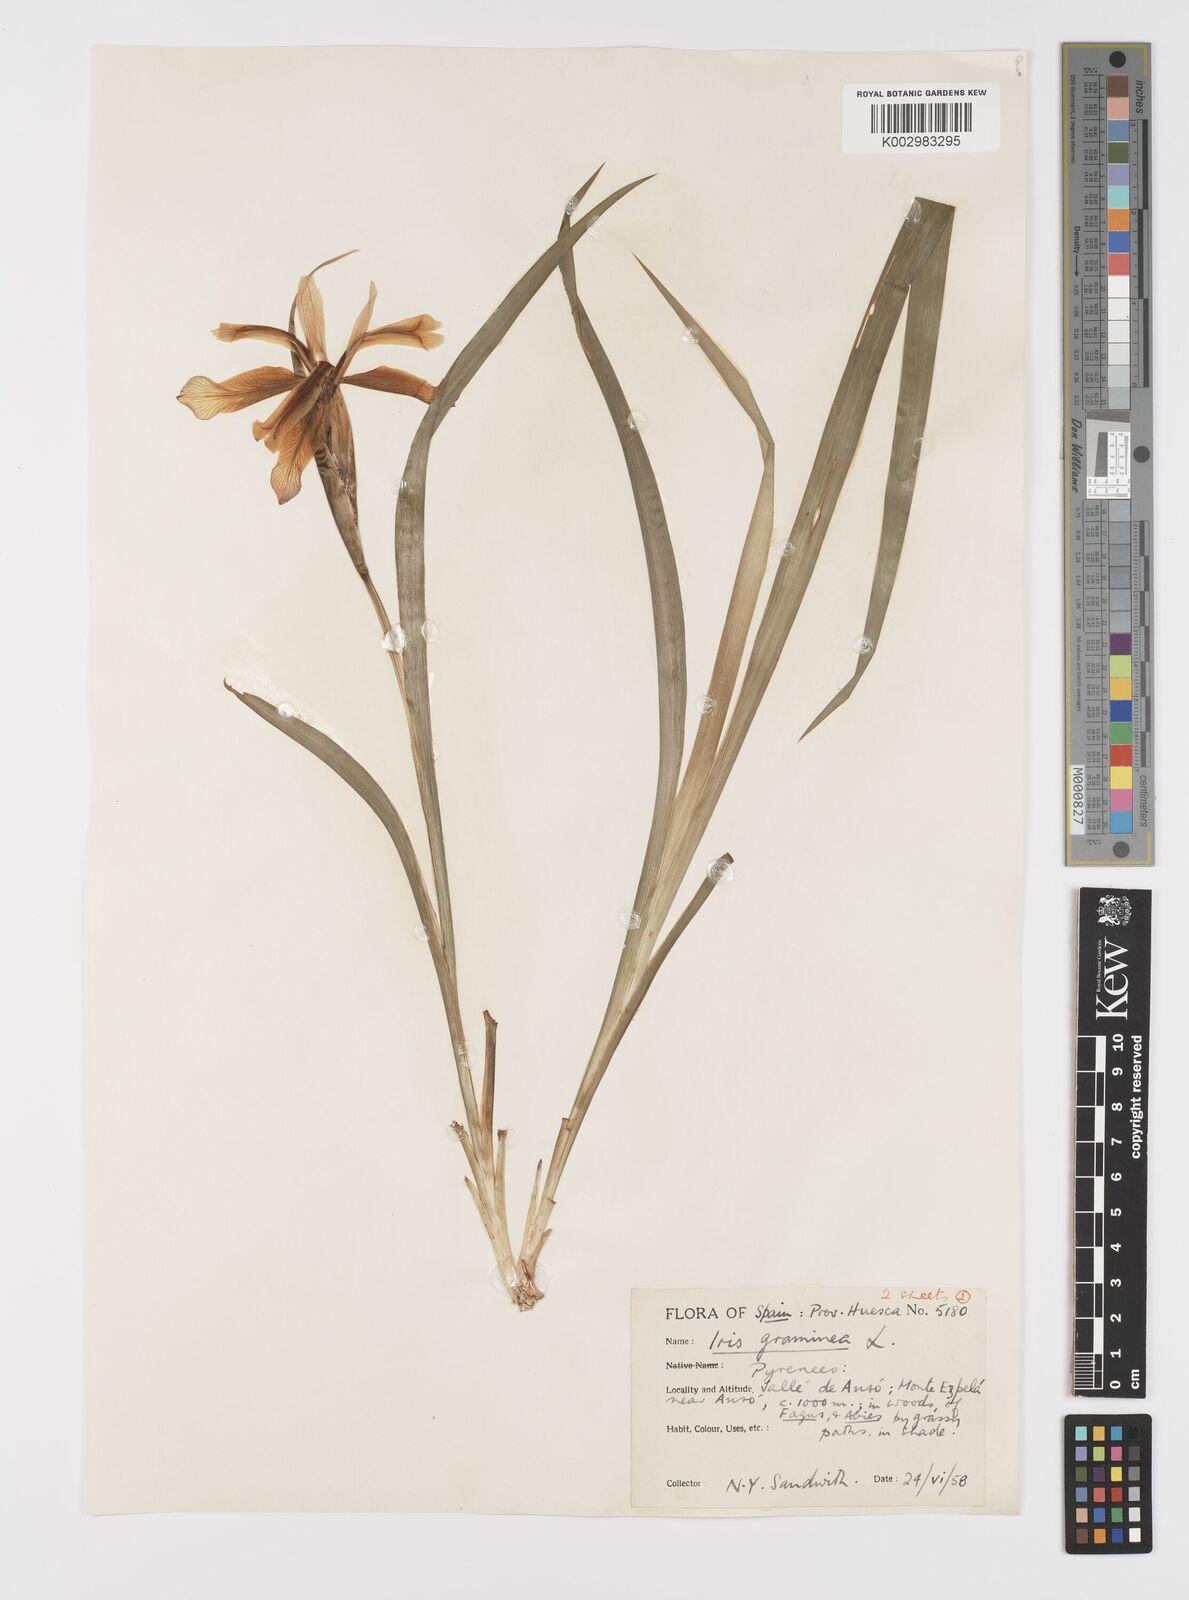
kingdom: Plantae
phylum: Tracheophyta
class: Liliopsida
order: Asparagales
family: Iridaceae
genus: Iris
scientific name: Iris graminea
